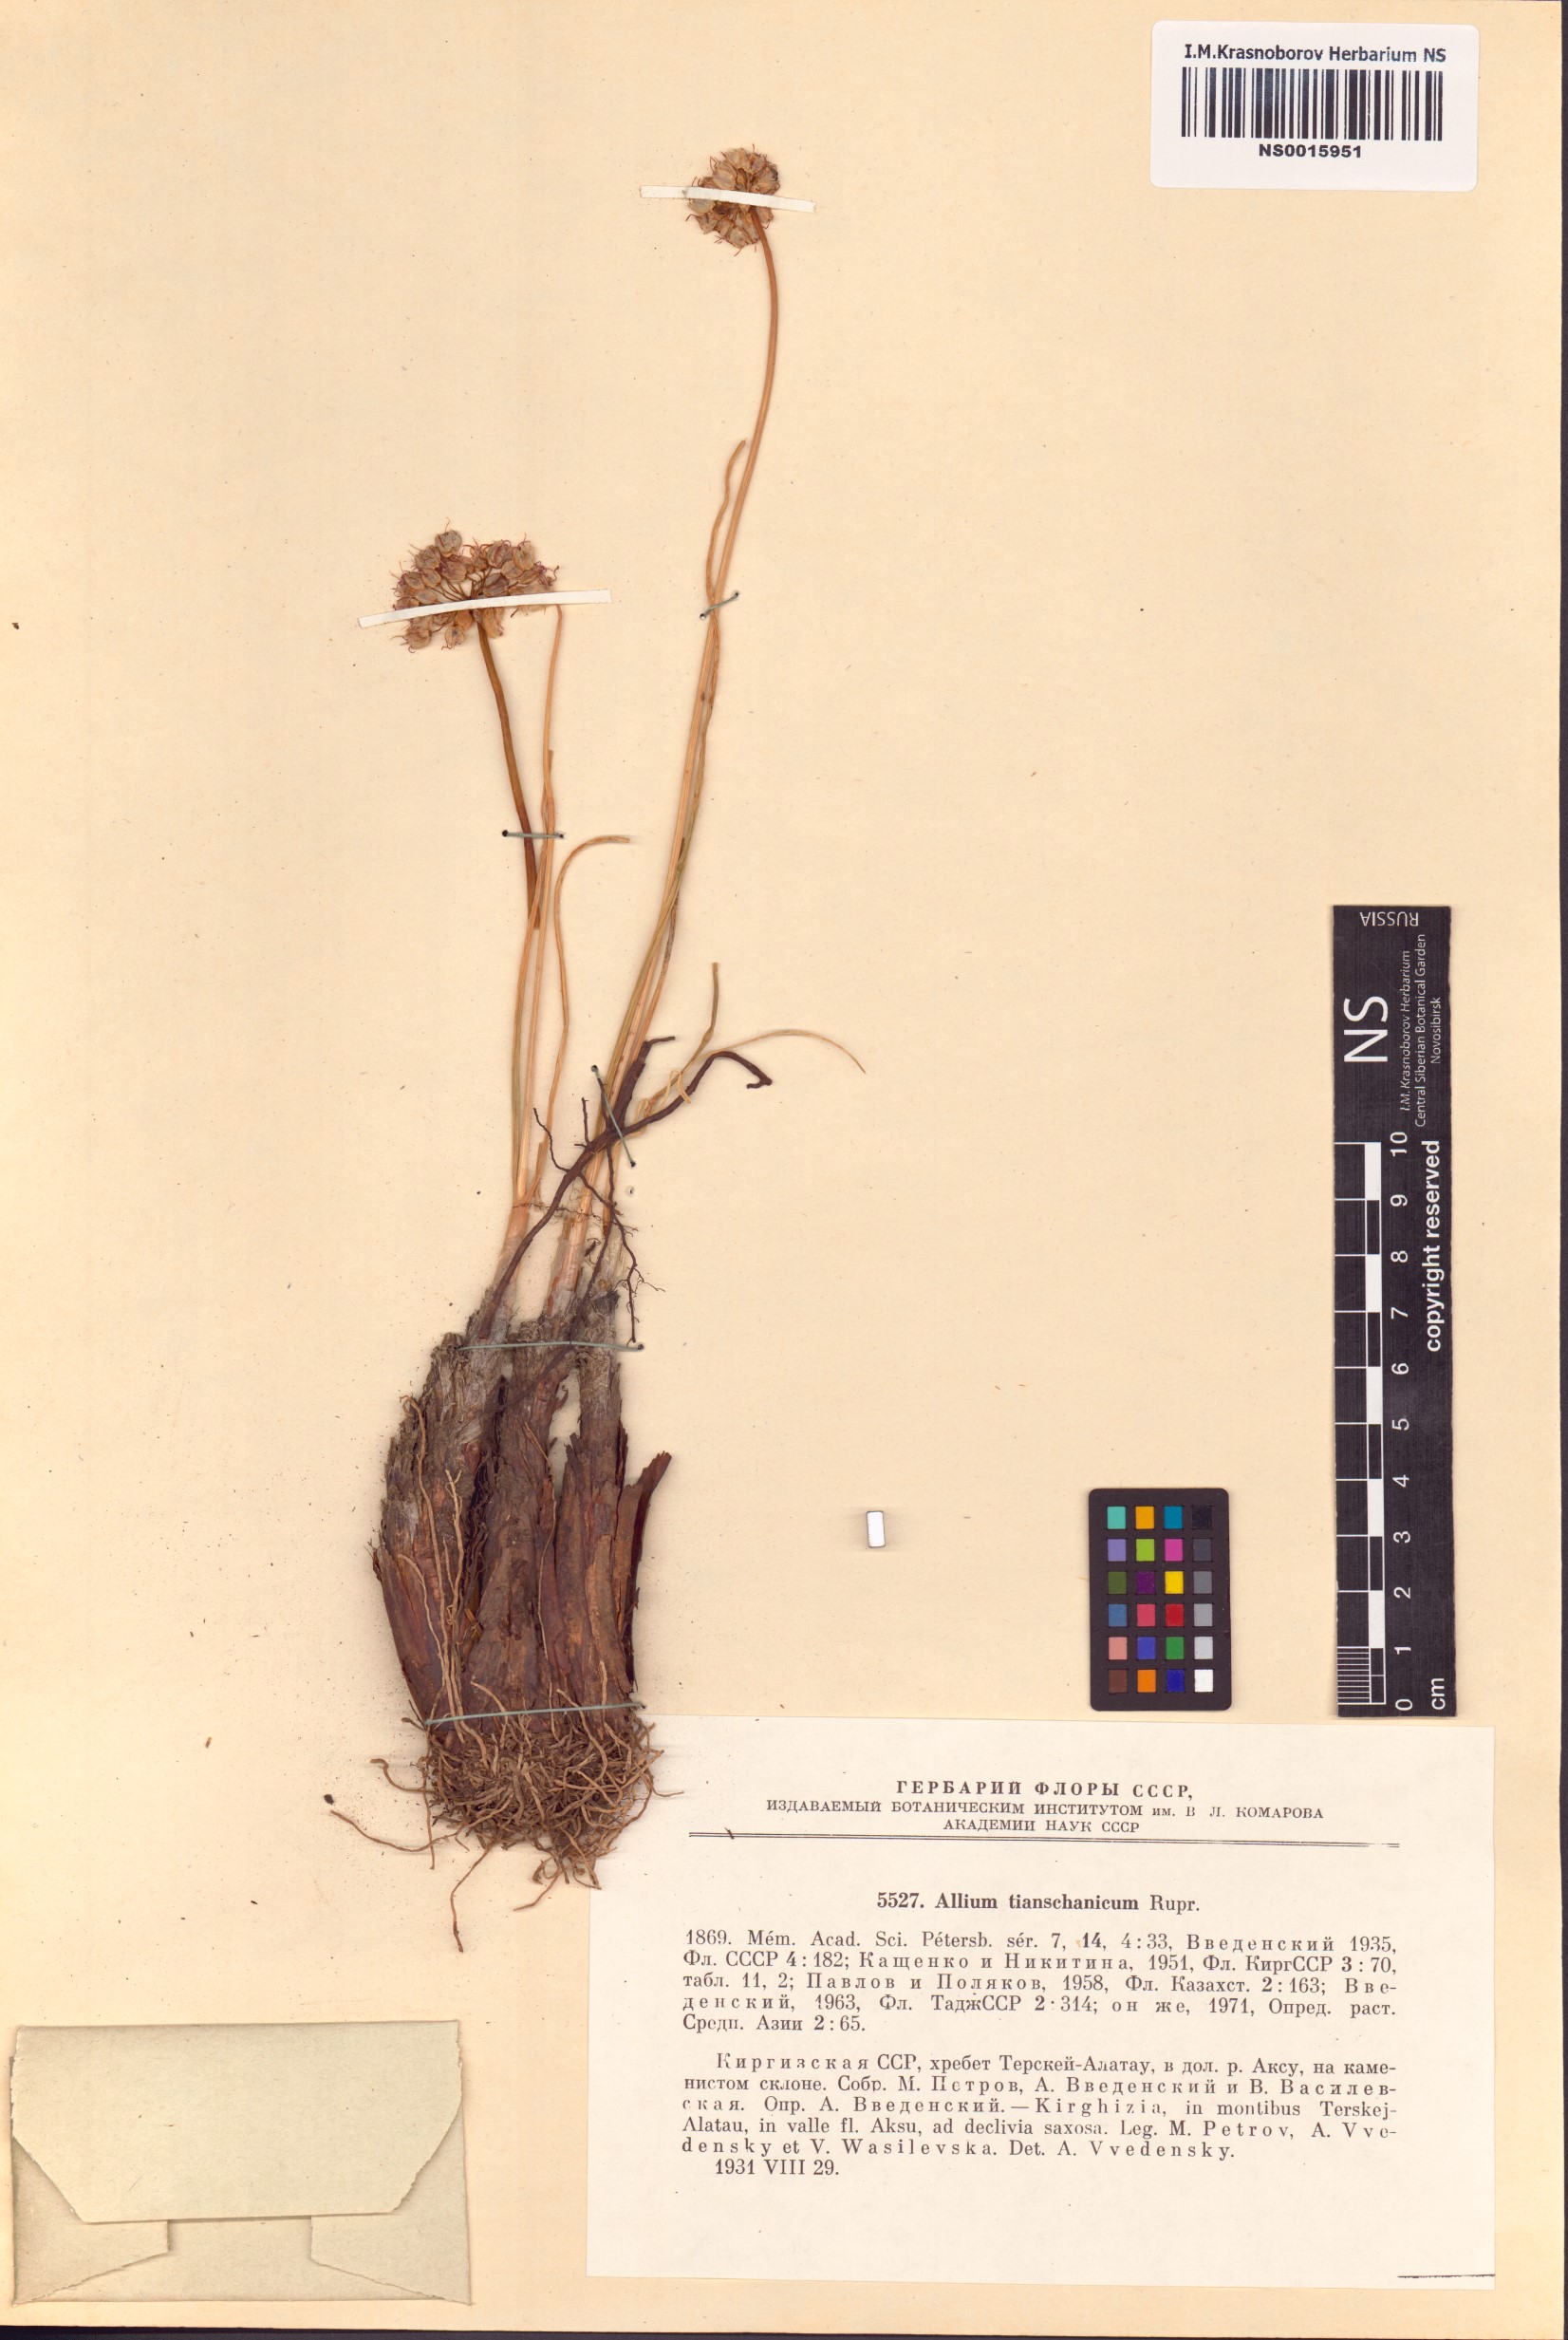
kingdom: Plantae
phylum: Tracheophyta
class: Liliopsida
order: Asparagales
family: Amaryllidaceae
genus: Allium
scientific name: Allium tianschanicum
